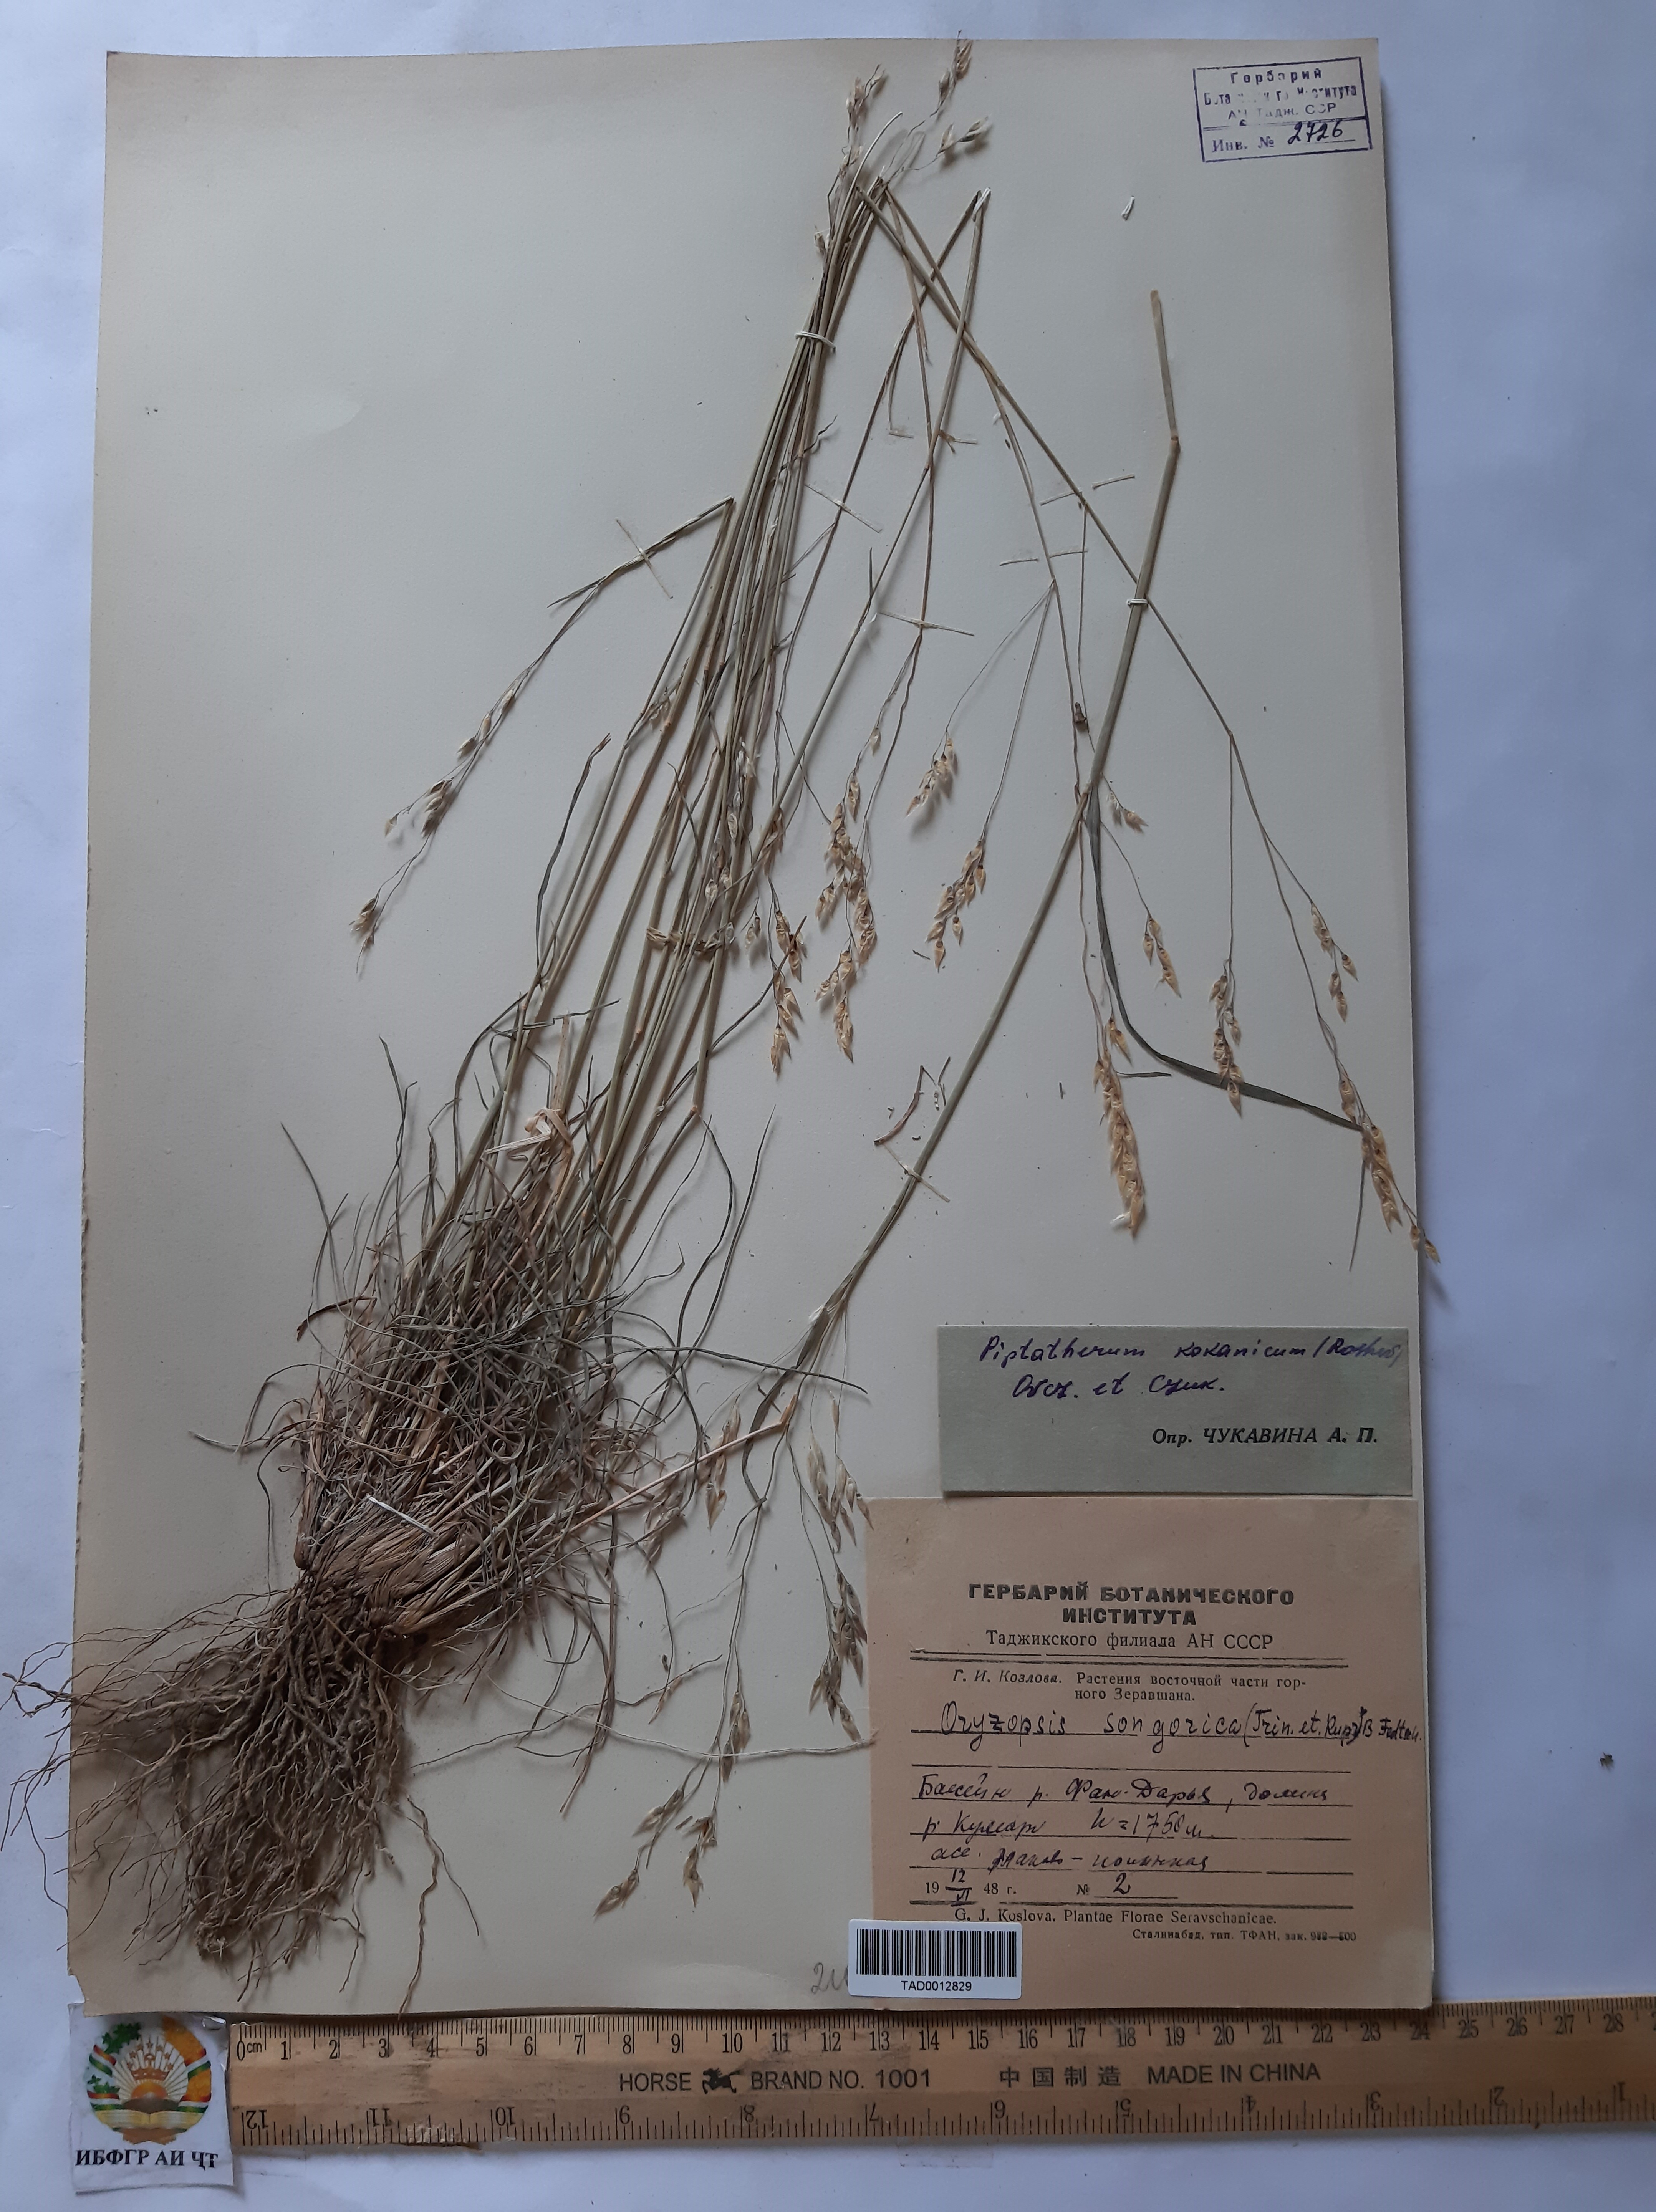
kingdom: Plantae
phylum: Tracheophyta
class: Liliopsida
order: Poales
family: Poaceae
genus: Piptatherum
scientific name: Piptatherum songaricum
